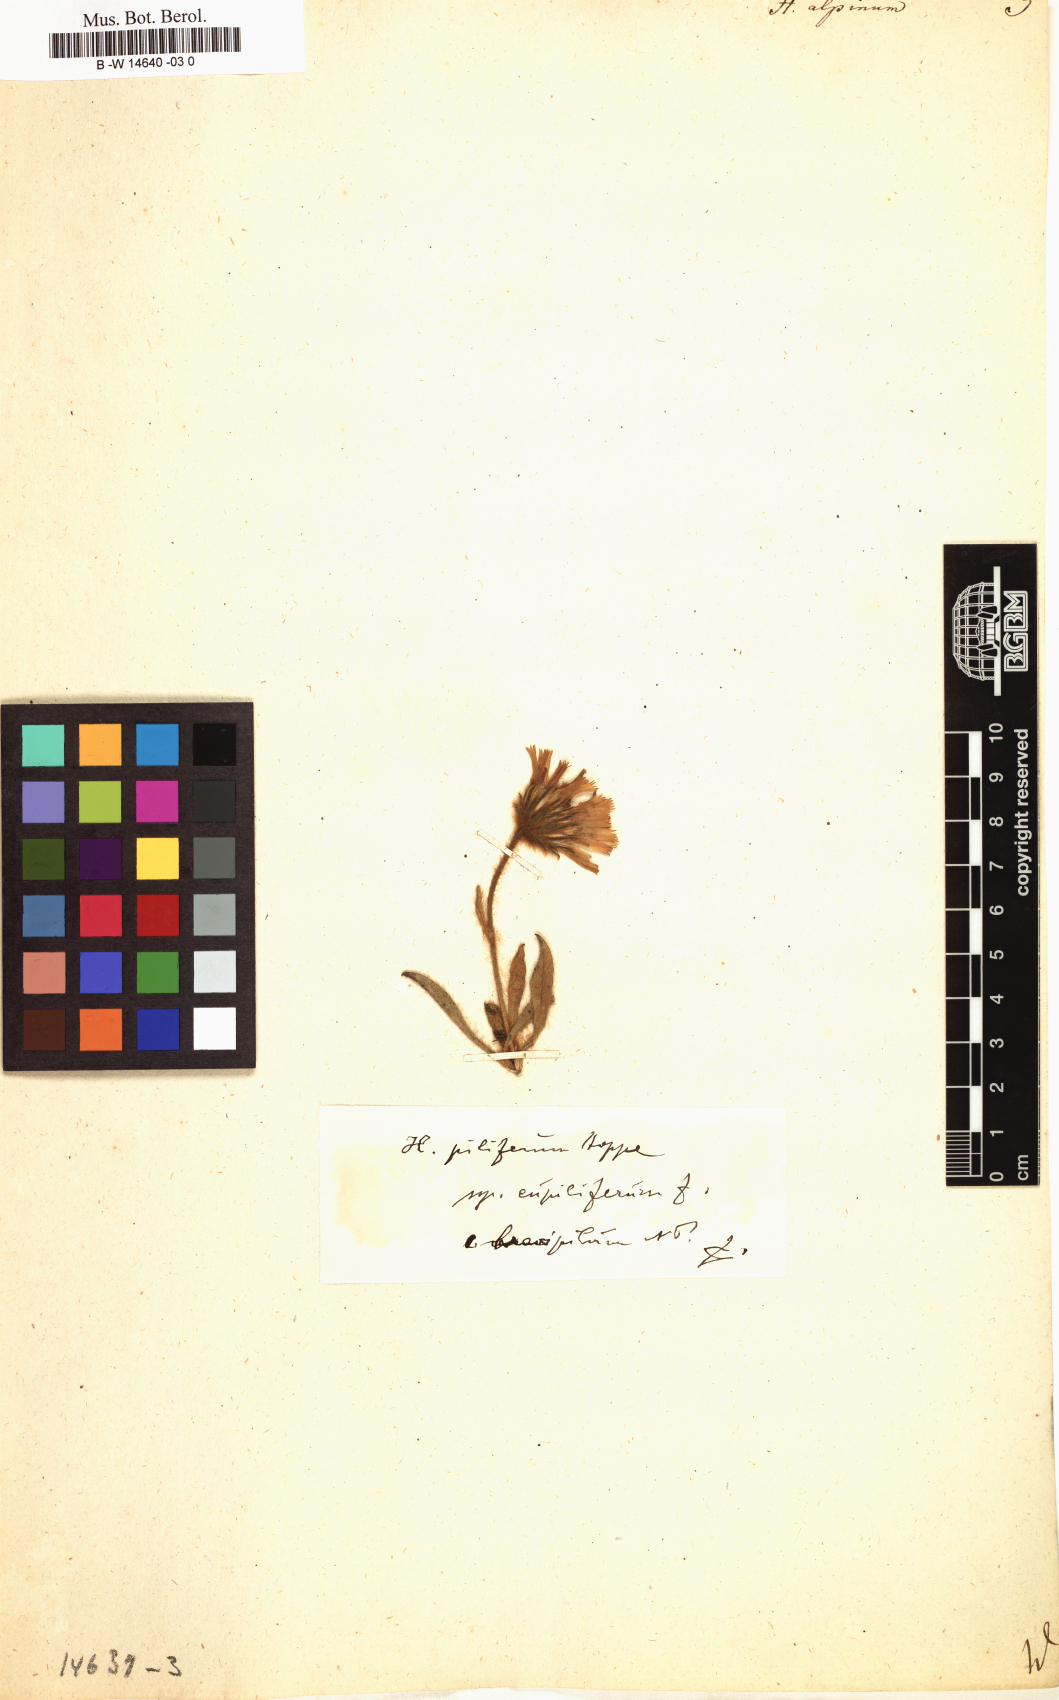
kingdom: Plantae
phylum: Tracheophyta
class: Magnoliopsida
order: Asterales
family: Asteraceae
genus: Hieracium
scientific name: Hieracium alpinum
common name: Alpine hawkweed
